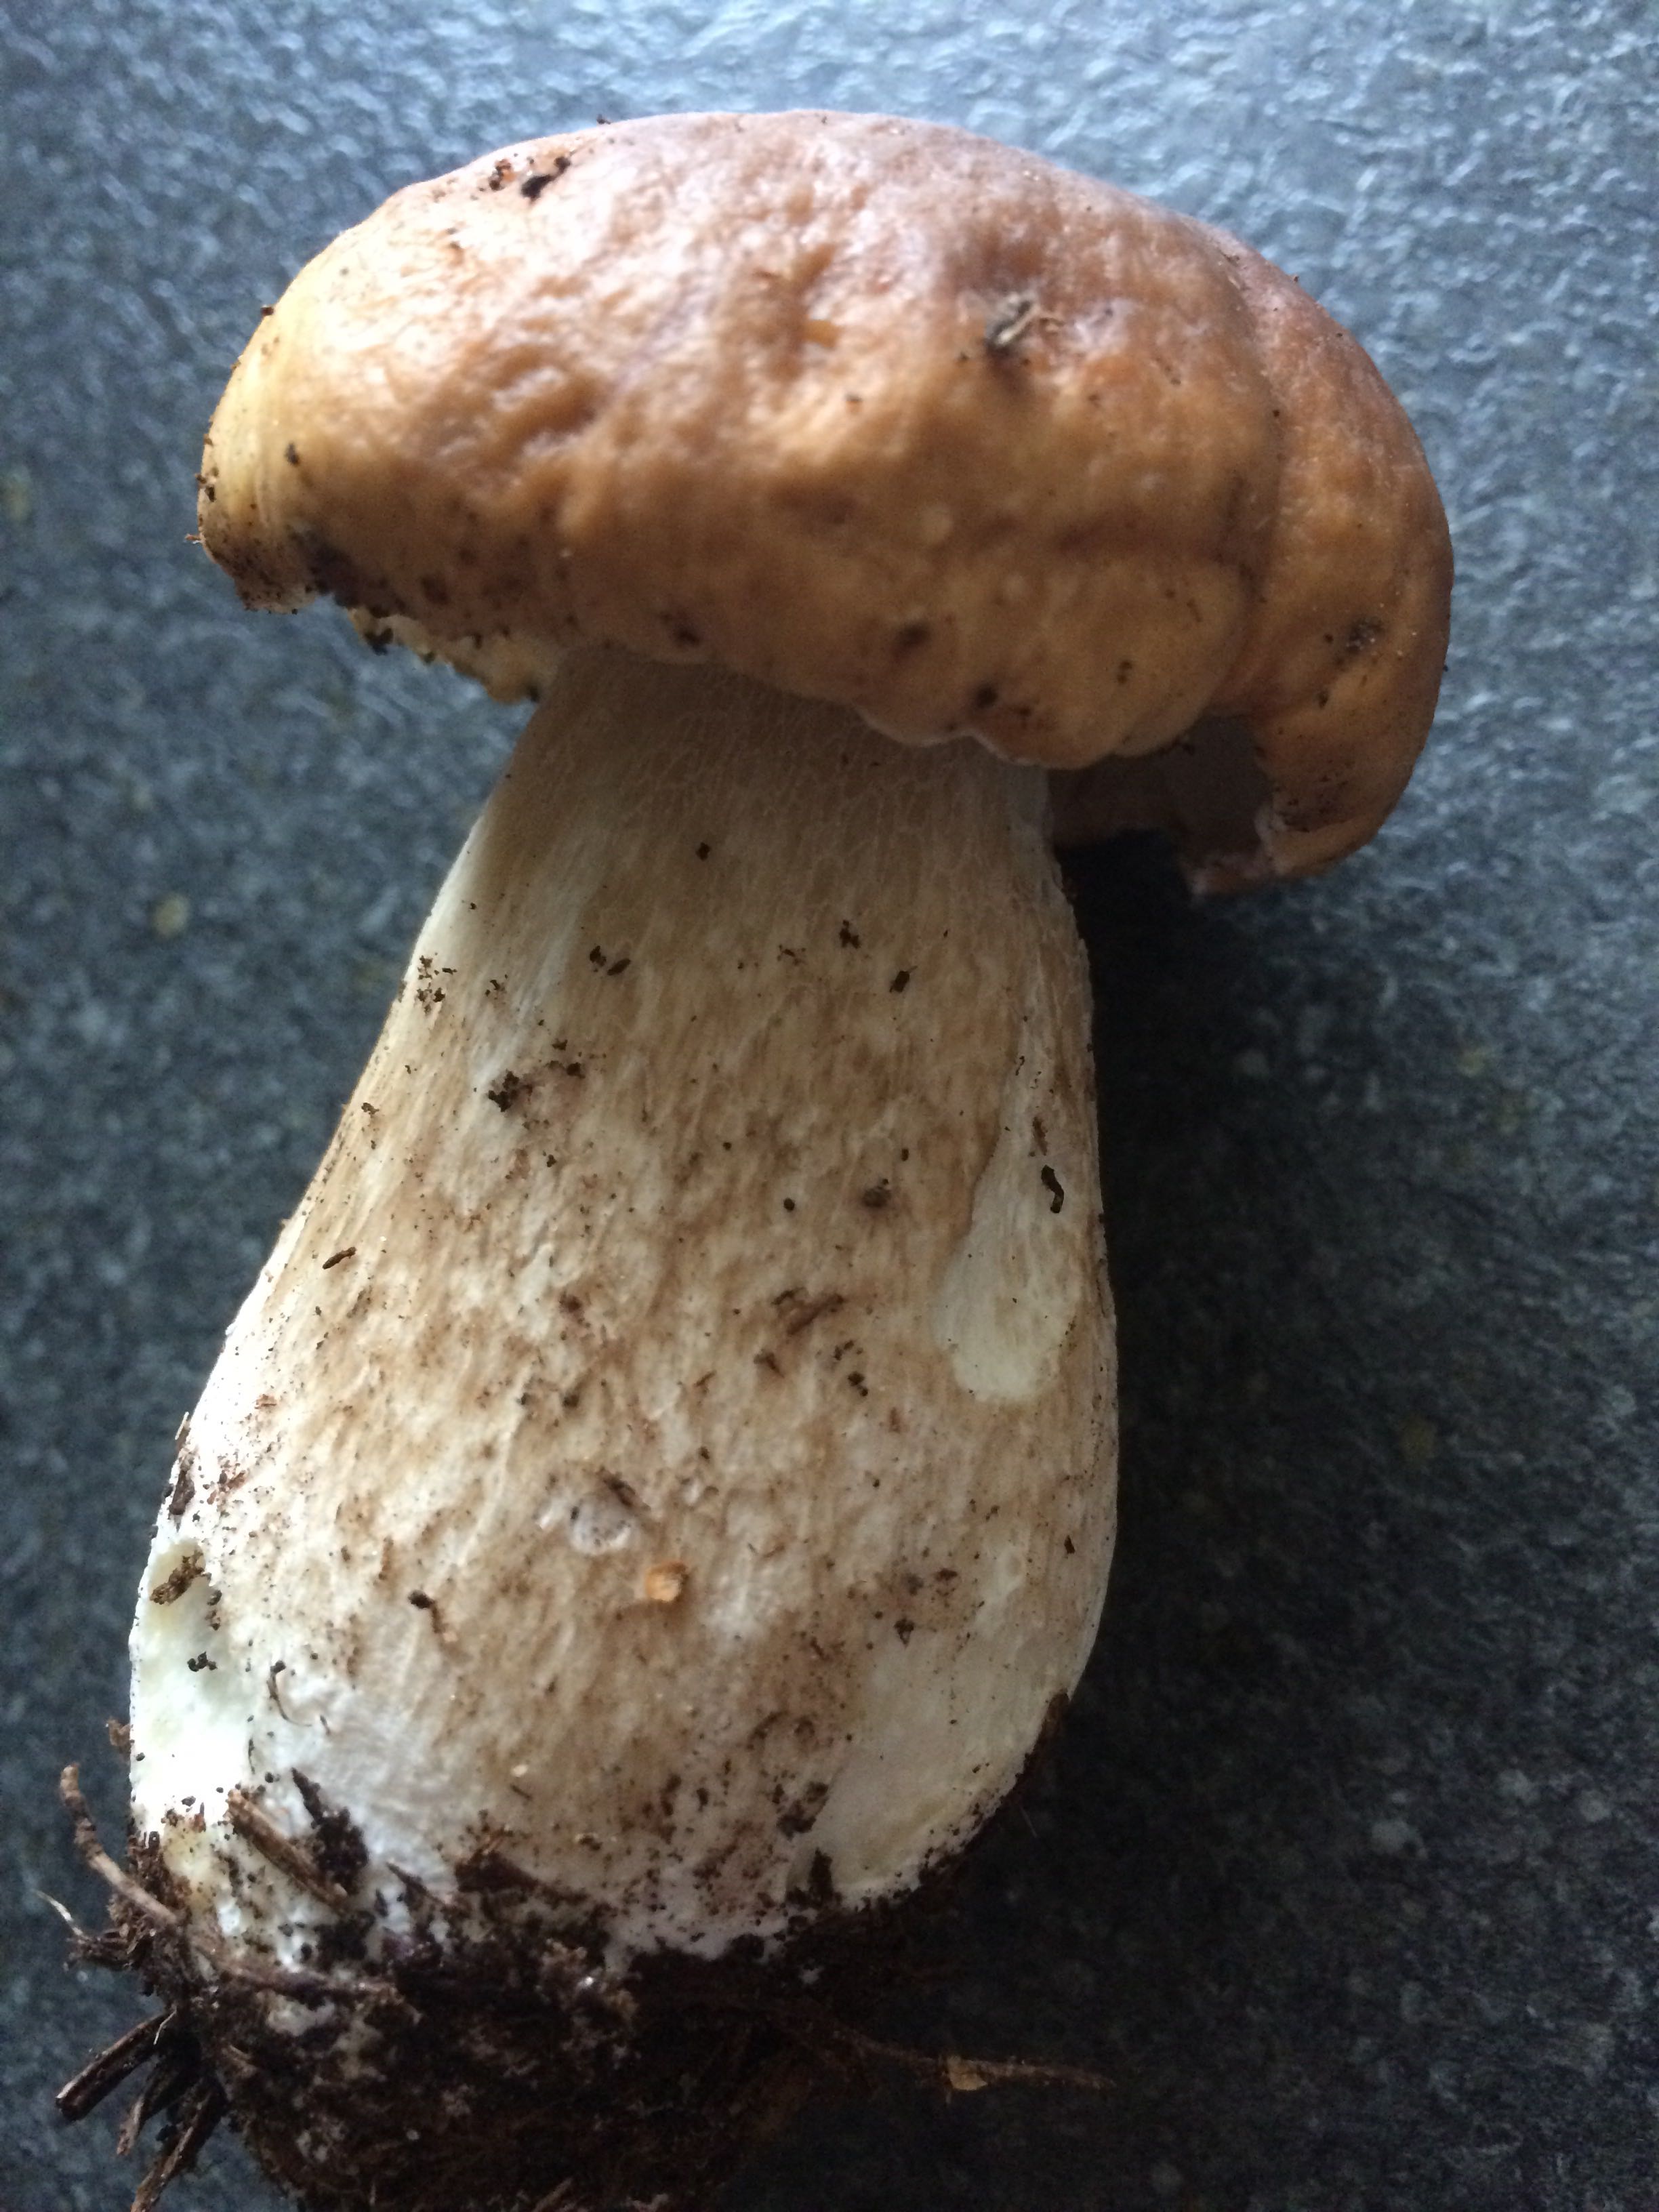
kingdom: Fungi
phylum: Basidiomycota
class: Agaricomycetes
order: Boletales
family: Boletaceae
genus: Boletus
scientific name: Boletus edulis
